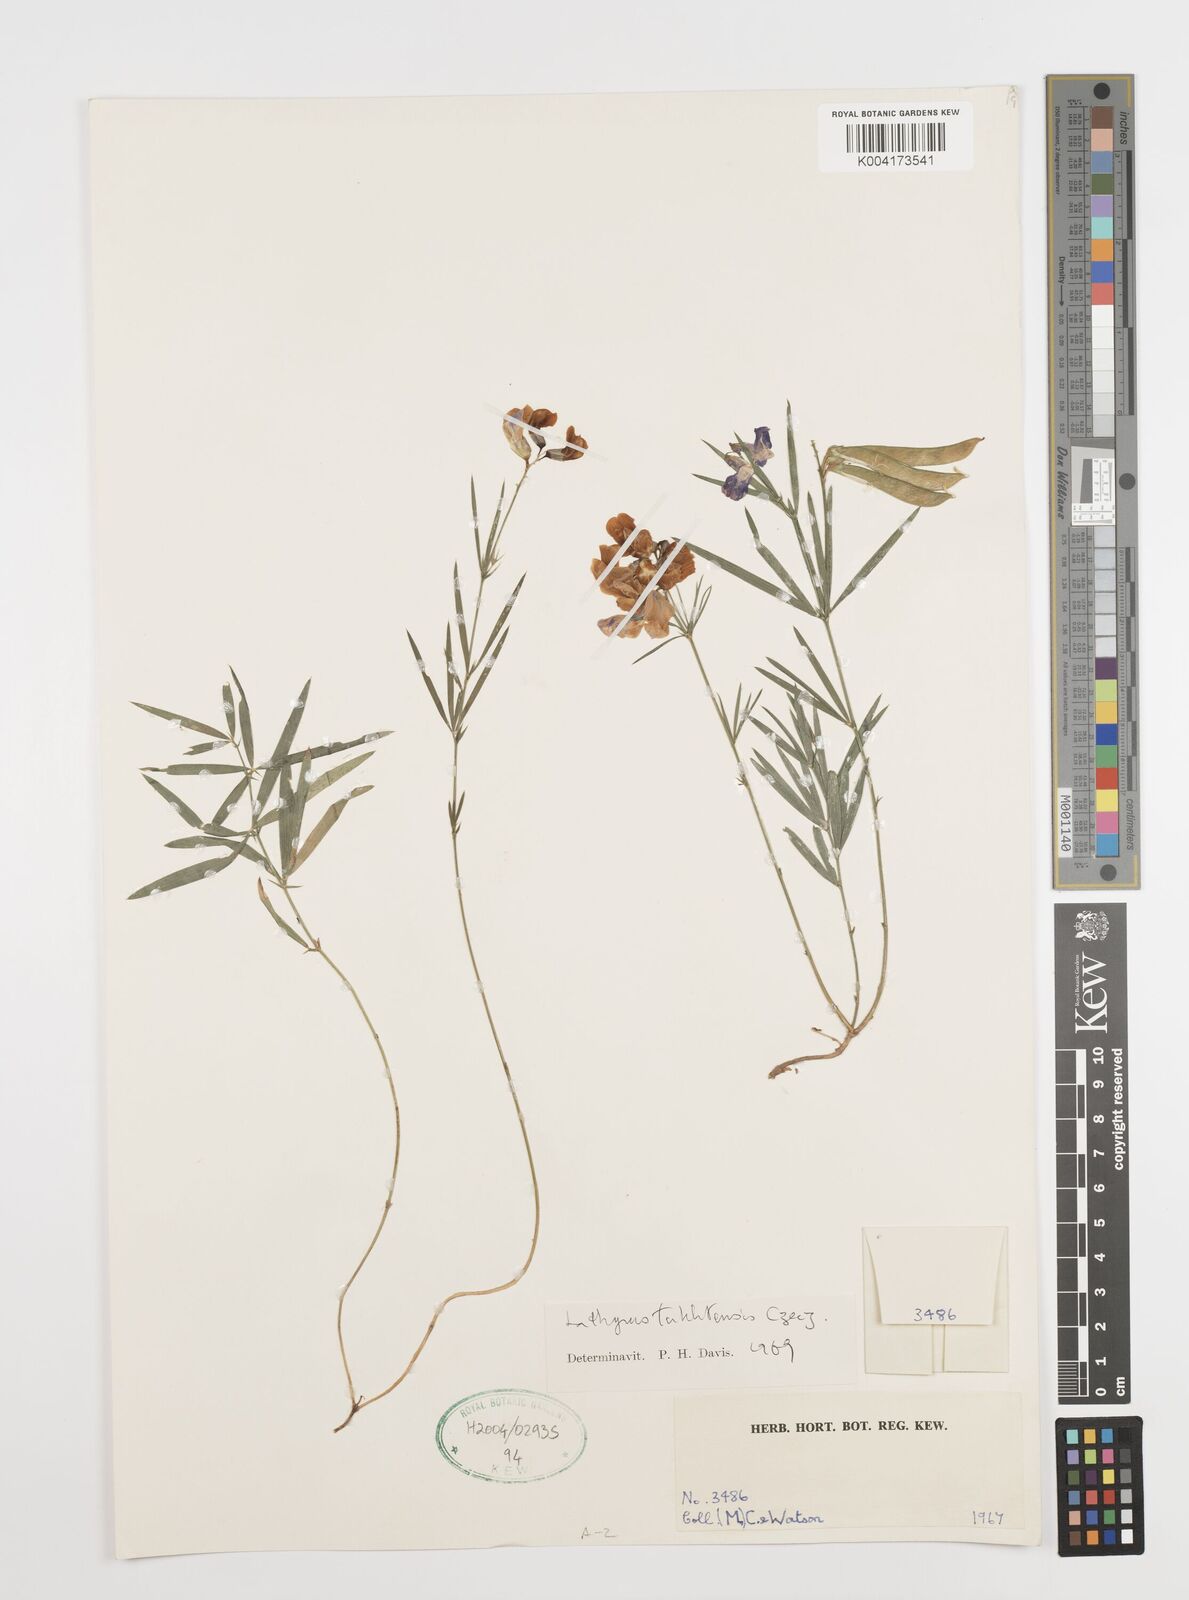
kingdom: Plantae
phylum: Tracheophyta
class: Magnoliopsida
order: Fabales
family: Fabaceae
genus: Lathyrus
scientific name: Lathyrus tukhtensis
